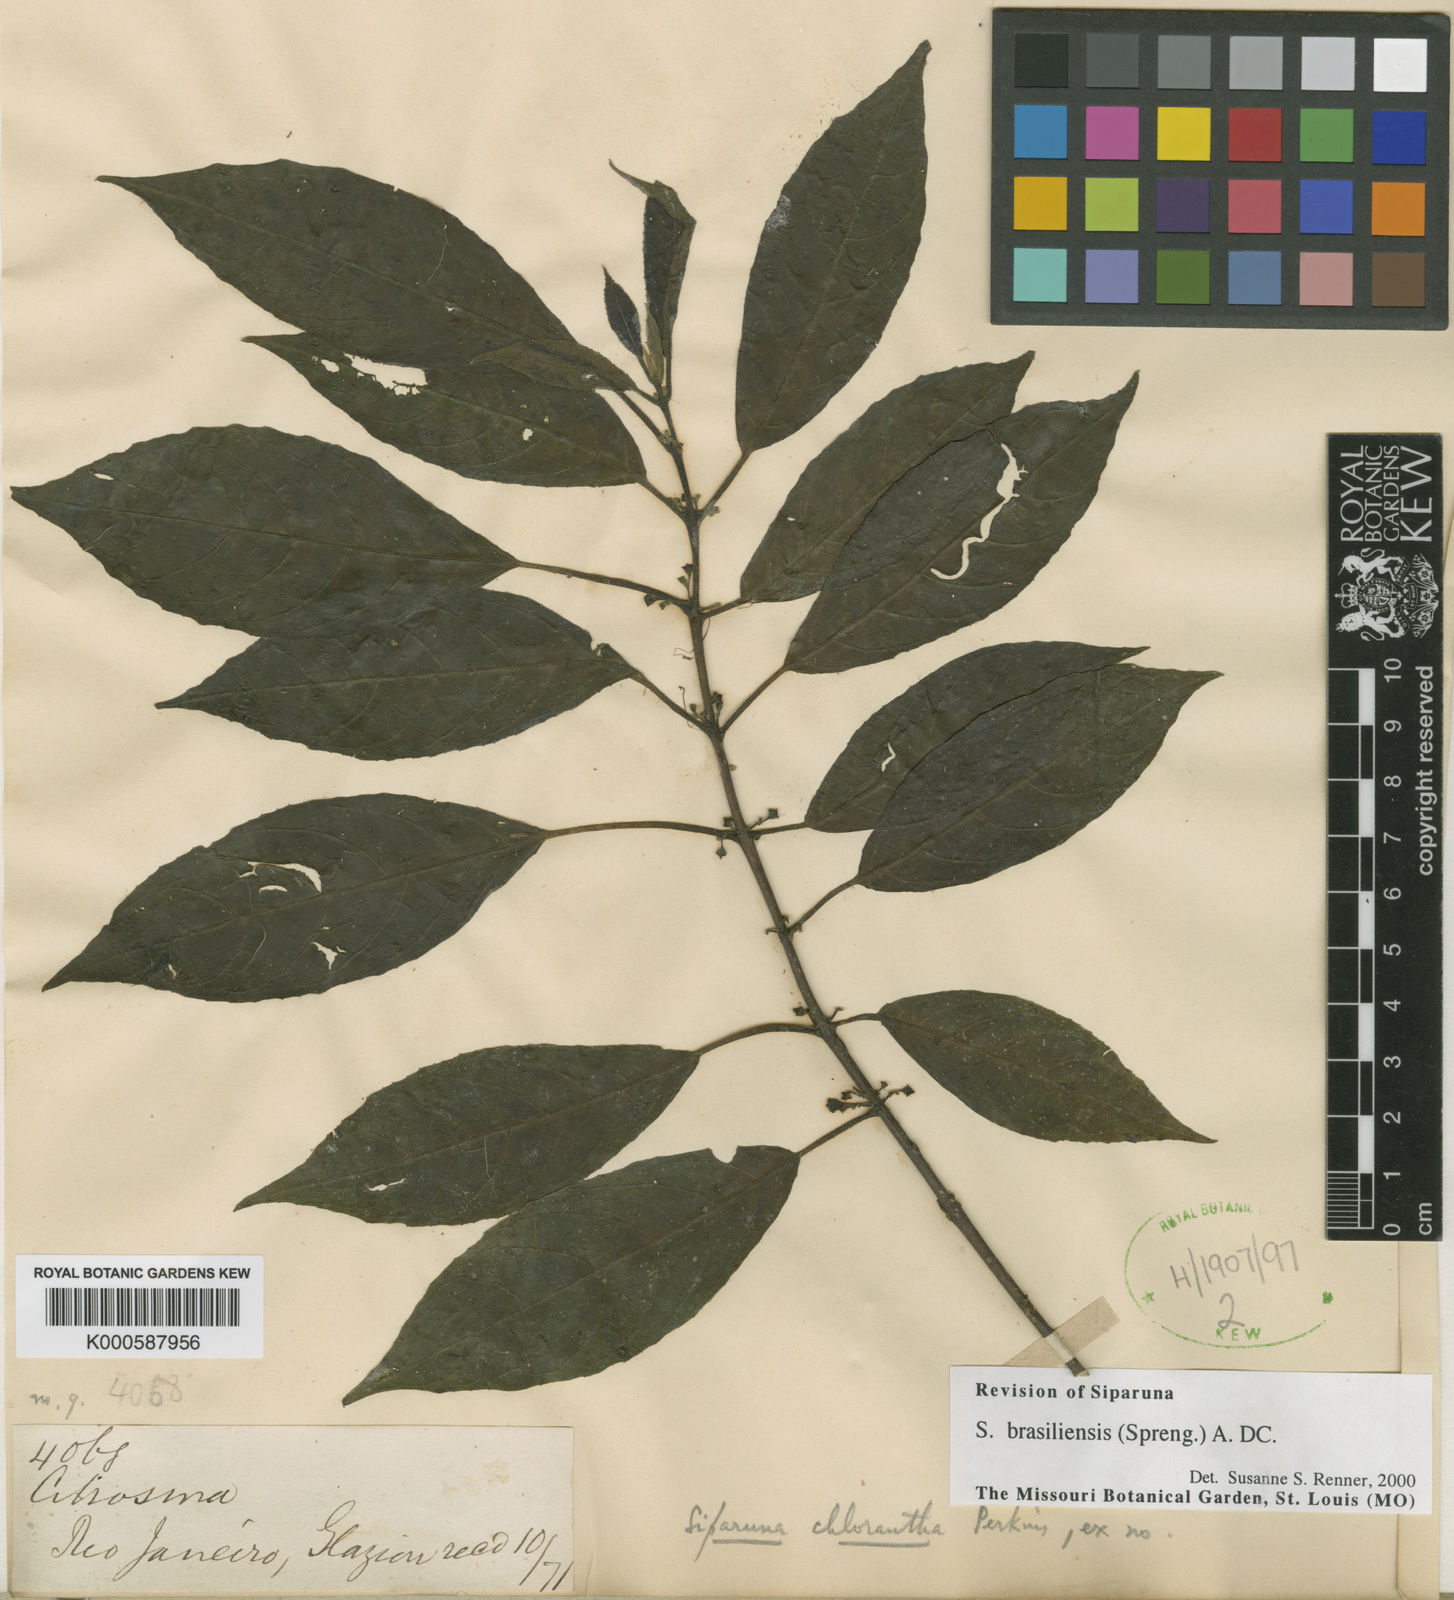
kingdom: Plantae
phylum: Tracheophyta
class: Magnoliopsida
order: Laurales
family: Siparunaceae
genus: Siparuna
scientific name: Siparuna brasiliensis
